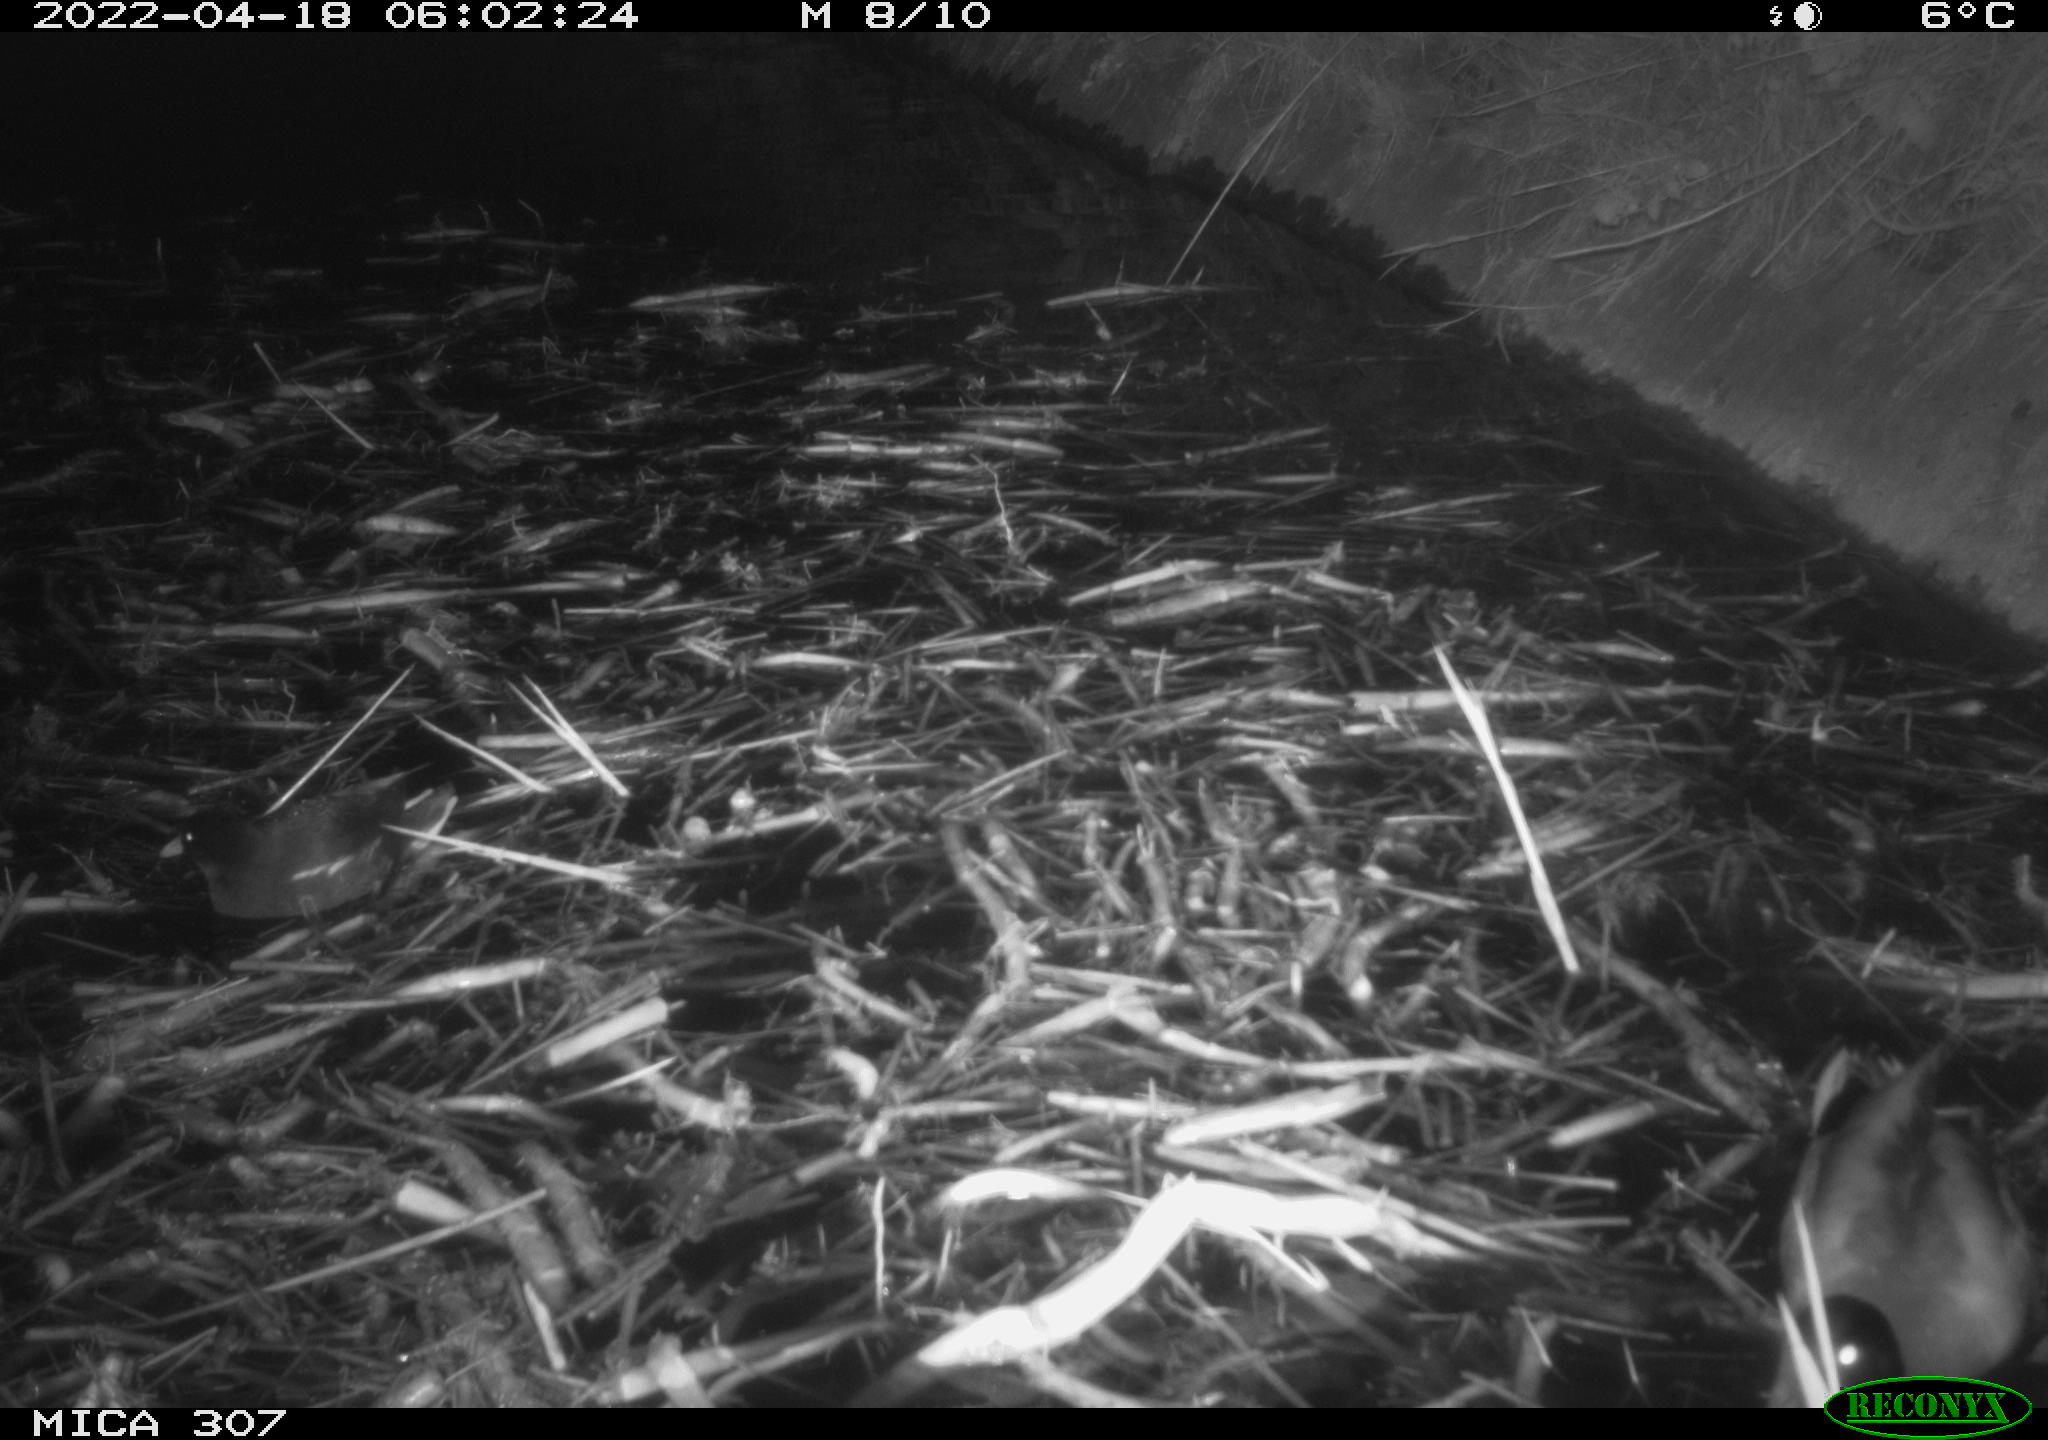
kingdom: Animalia
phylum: Chordata
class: Aves
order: Gruiformes
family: Rallidae
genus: Gallinula
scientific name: Gallinula chloropus
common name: Common moorhen
